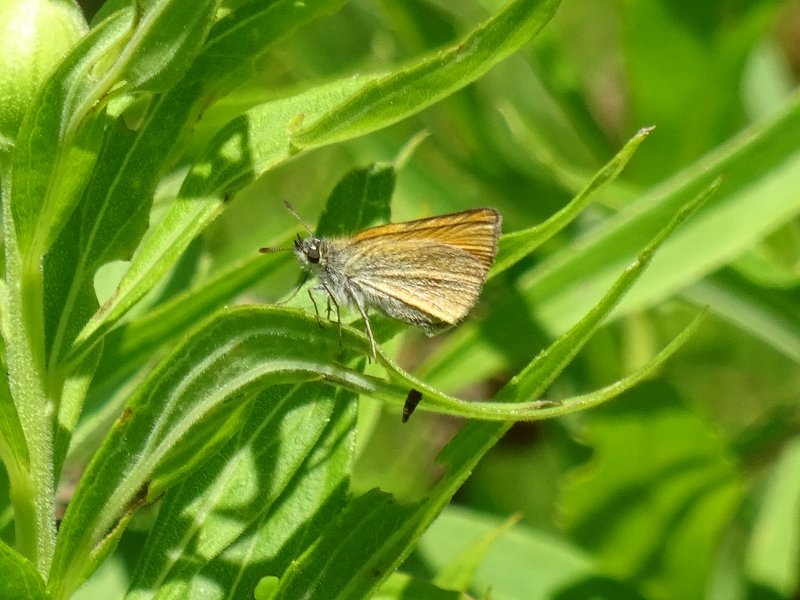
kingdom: Animalia
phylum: Arthropoda
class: Insecta
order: Lepidoptera
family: Hesperiidae
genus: Thymelicus
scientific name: Thymelicus lineola
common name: European Skipper
